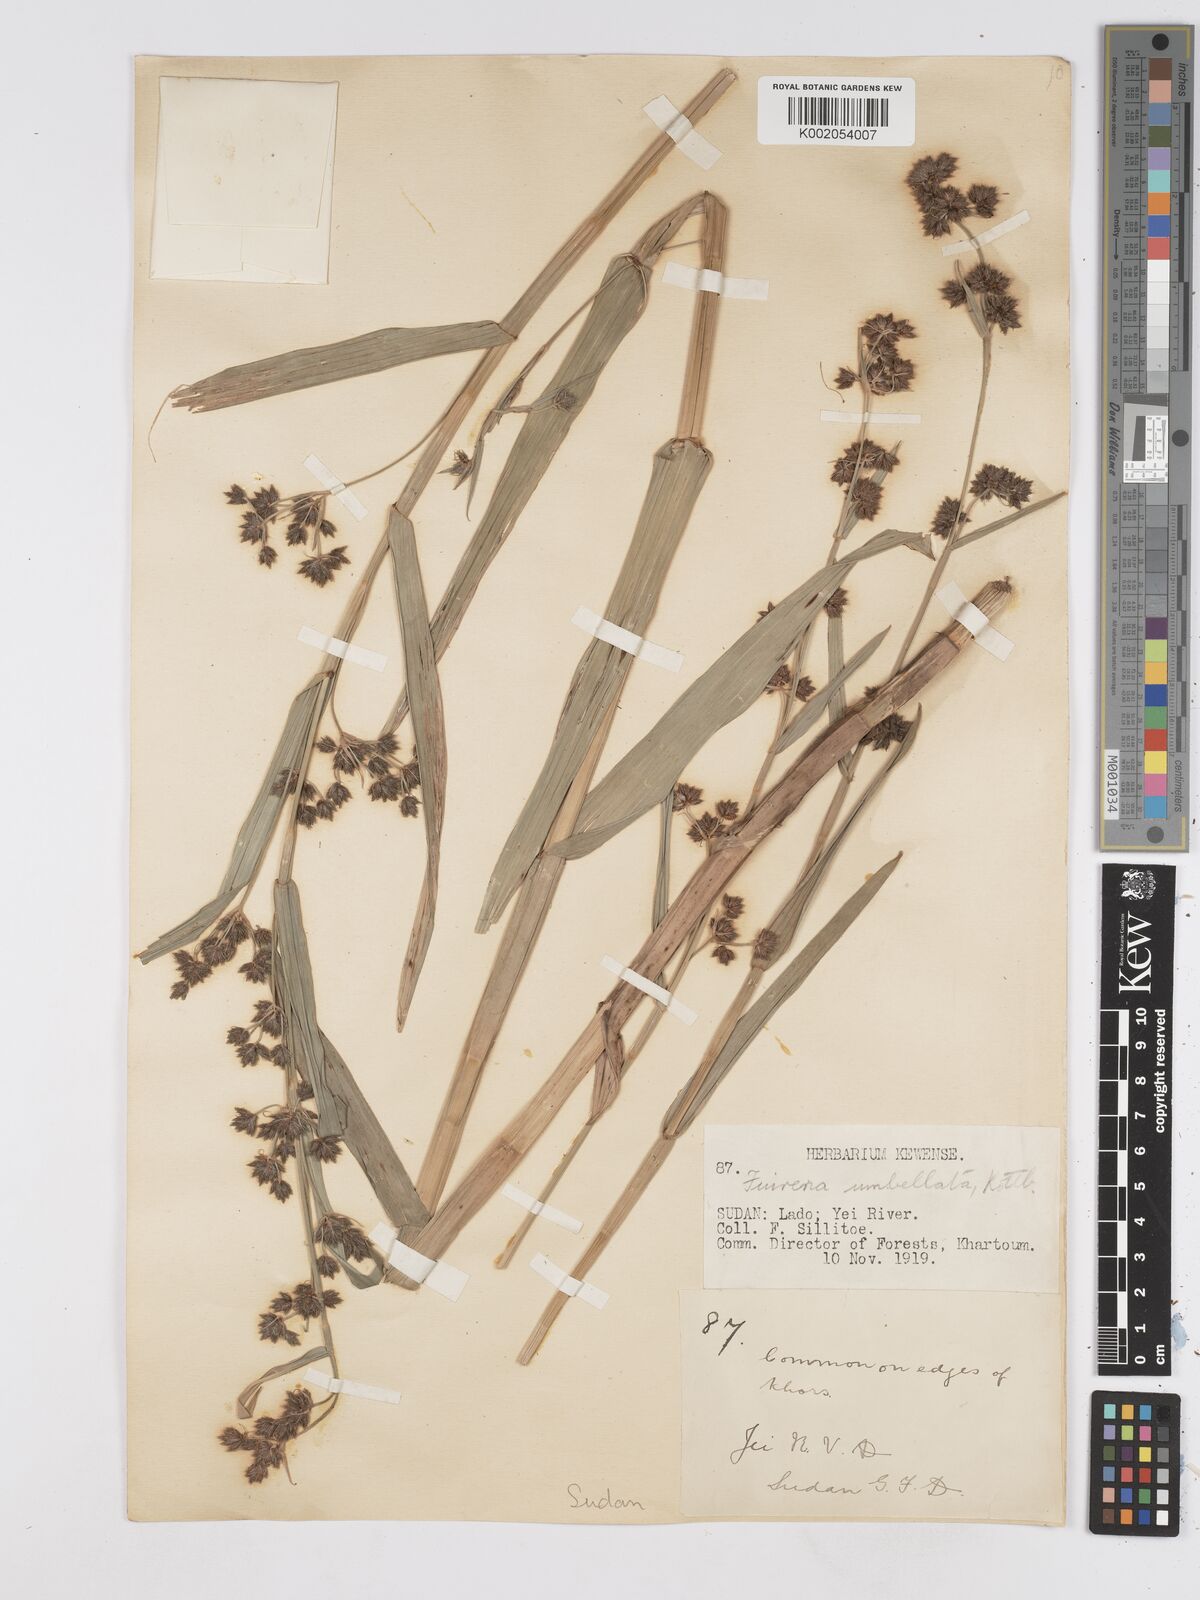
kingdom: Plantae
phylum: Tracheophyta
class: Liliopsida
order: Poales
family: Cyperaceae
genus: Fuirena
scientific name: Fuirena umbellata
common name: Yefen
